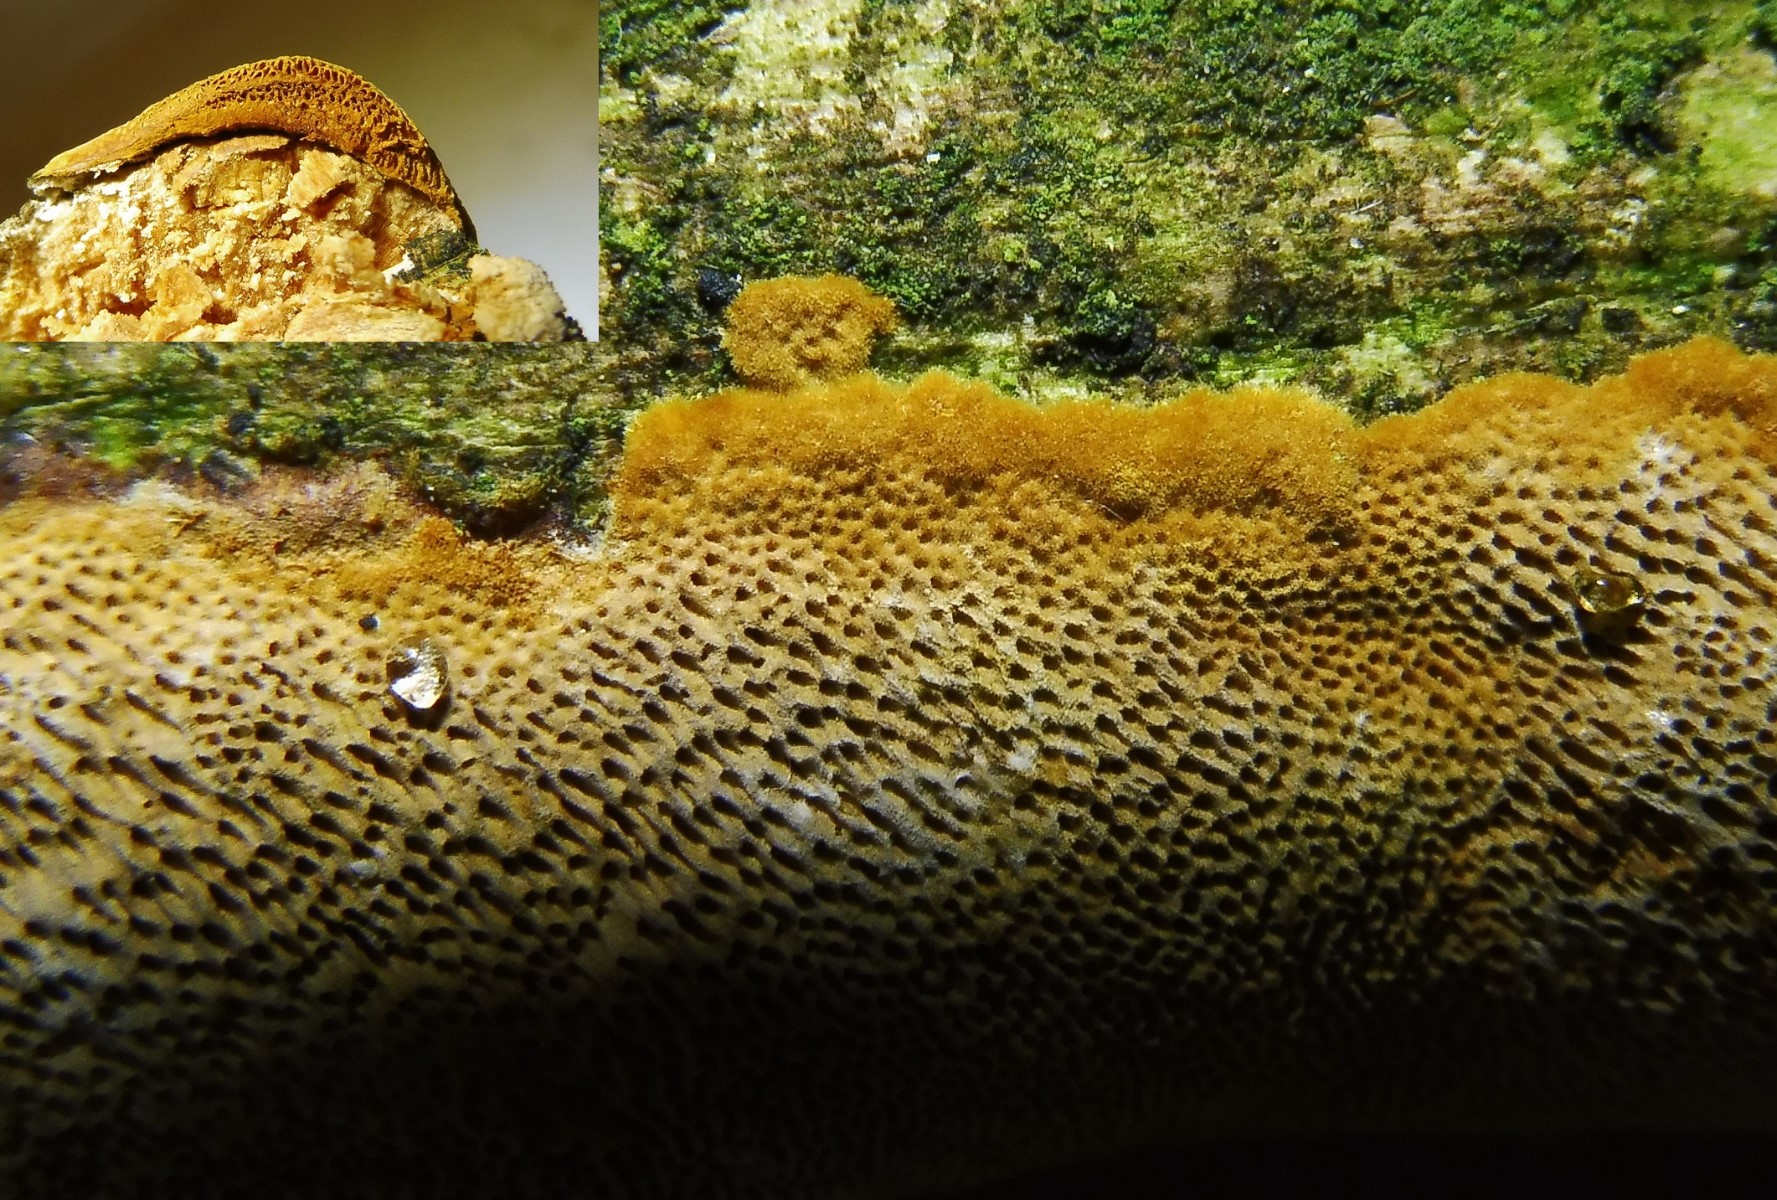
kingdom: Fungi
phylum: Basidiomycota
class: Agaricomycetes
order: Hymenochaetales
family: Hymenochaetaceae
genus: Fuscoporia
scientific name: Fuscoporia ferrea
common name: skorpe-ildporesvamp
